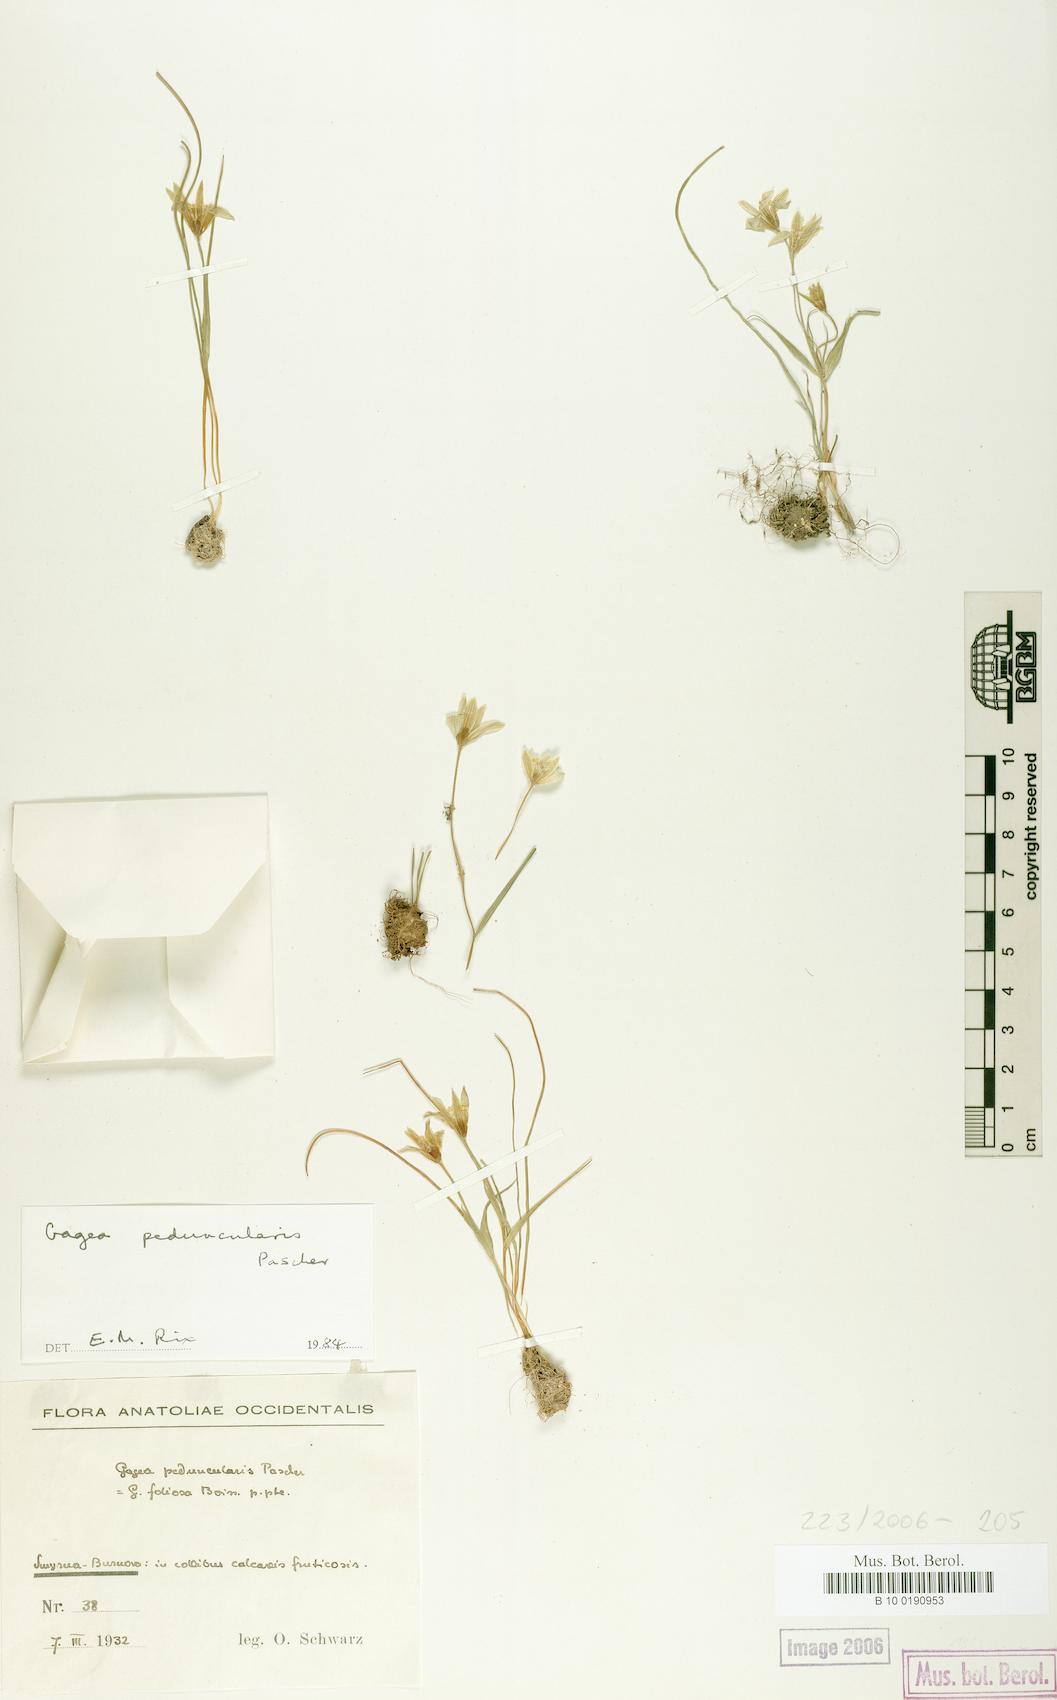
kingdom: Plantae
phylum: Tracheophyta
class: Liliopsida
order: Liliales
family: Liliaceae
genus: Gagea
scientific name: Gagea peduncularis
